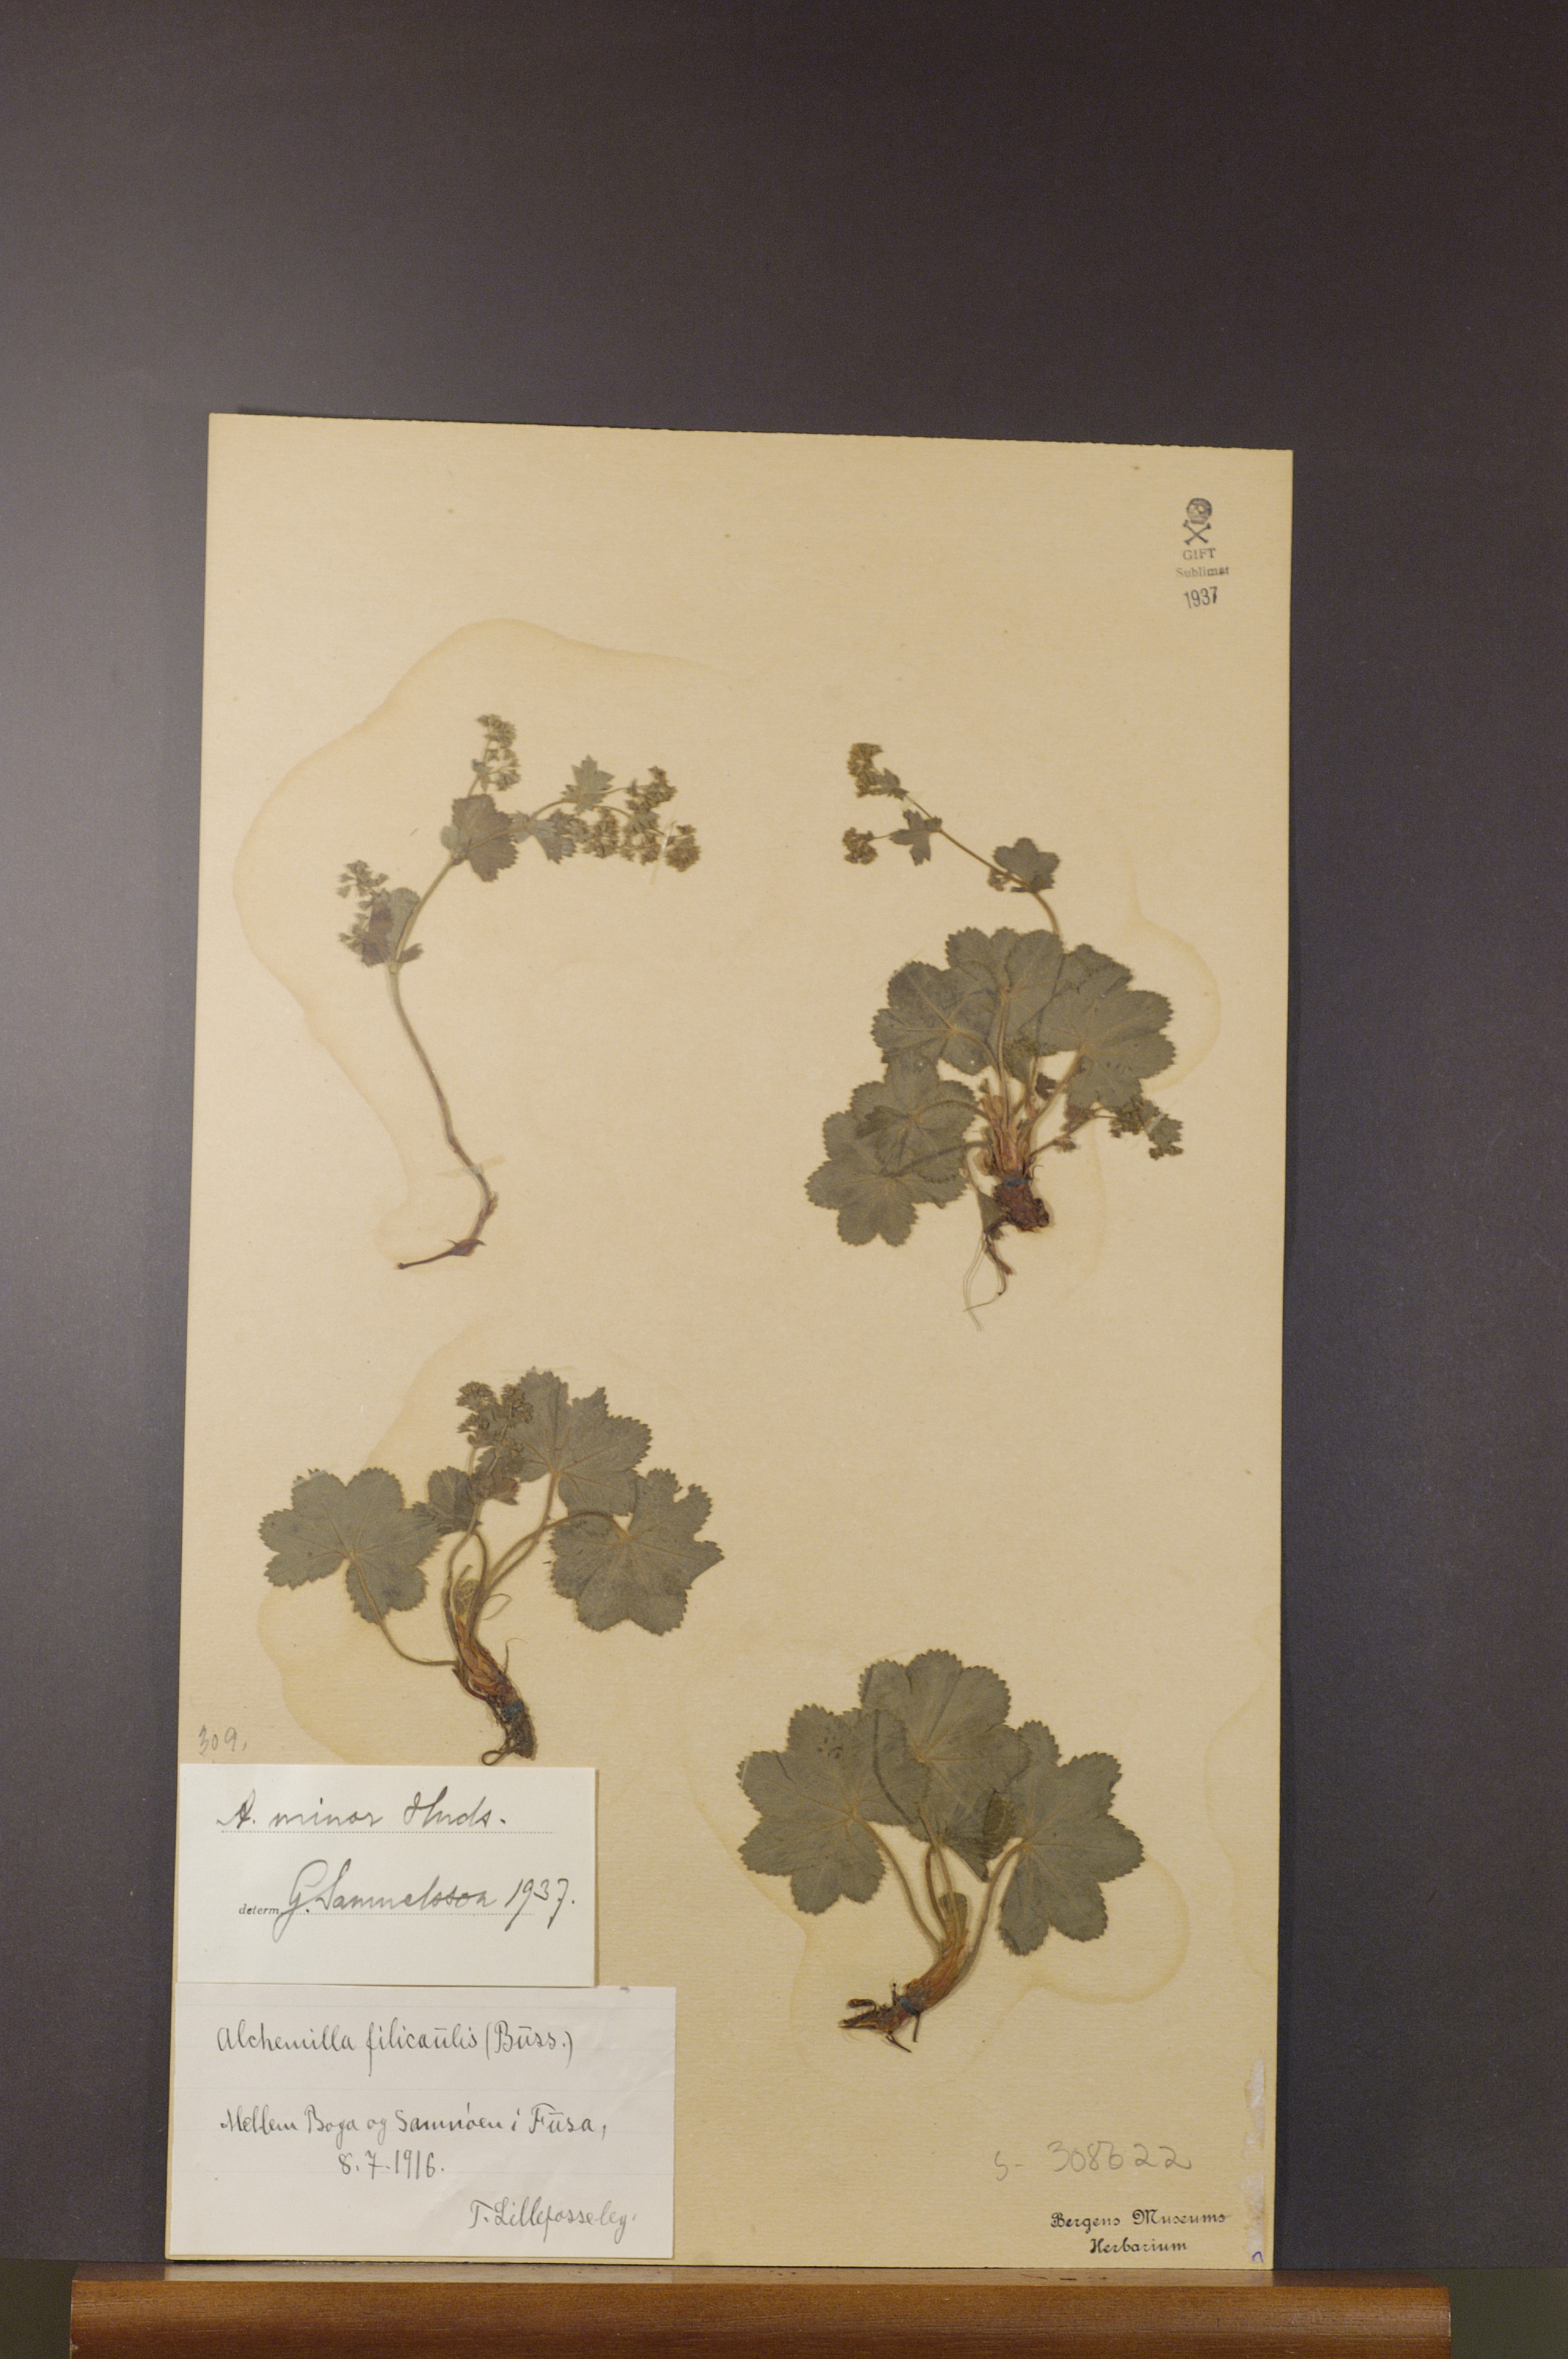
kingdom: Plantae
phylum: Tracheophyta
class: Magnoliopsida
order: Rosales
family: Rosaceae
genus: Alchemilla
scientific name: Alchemilla filicaulis
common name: Hairy lady's-mantle
